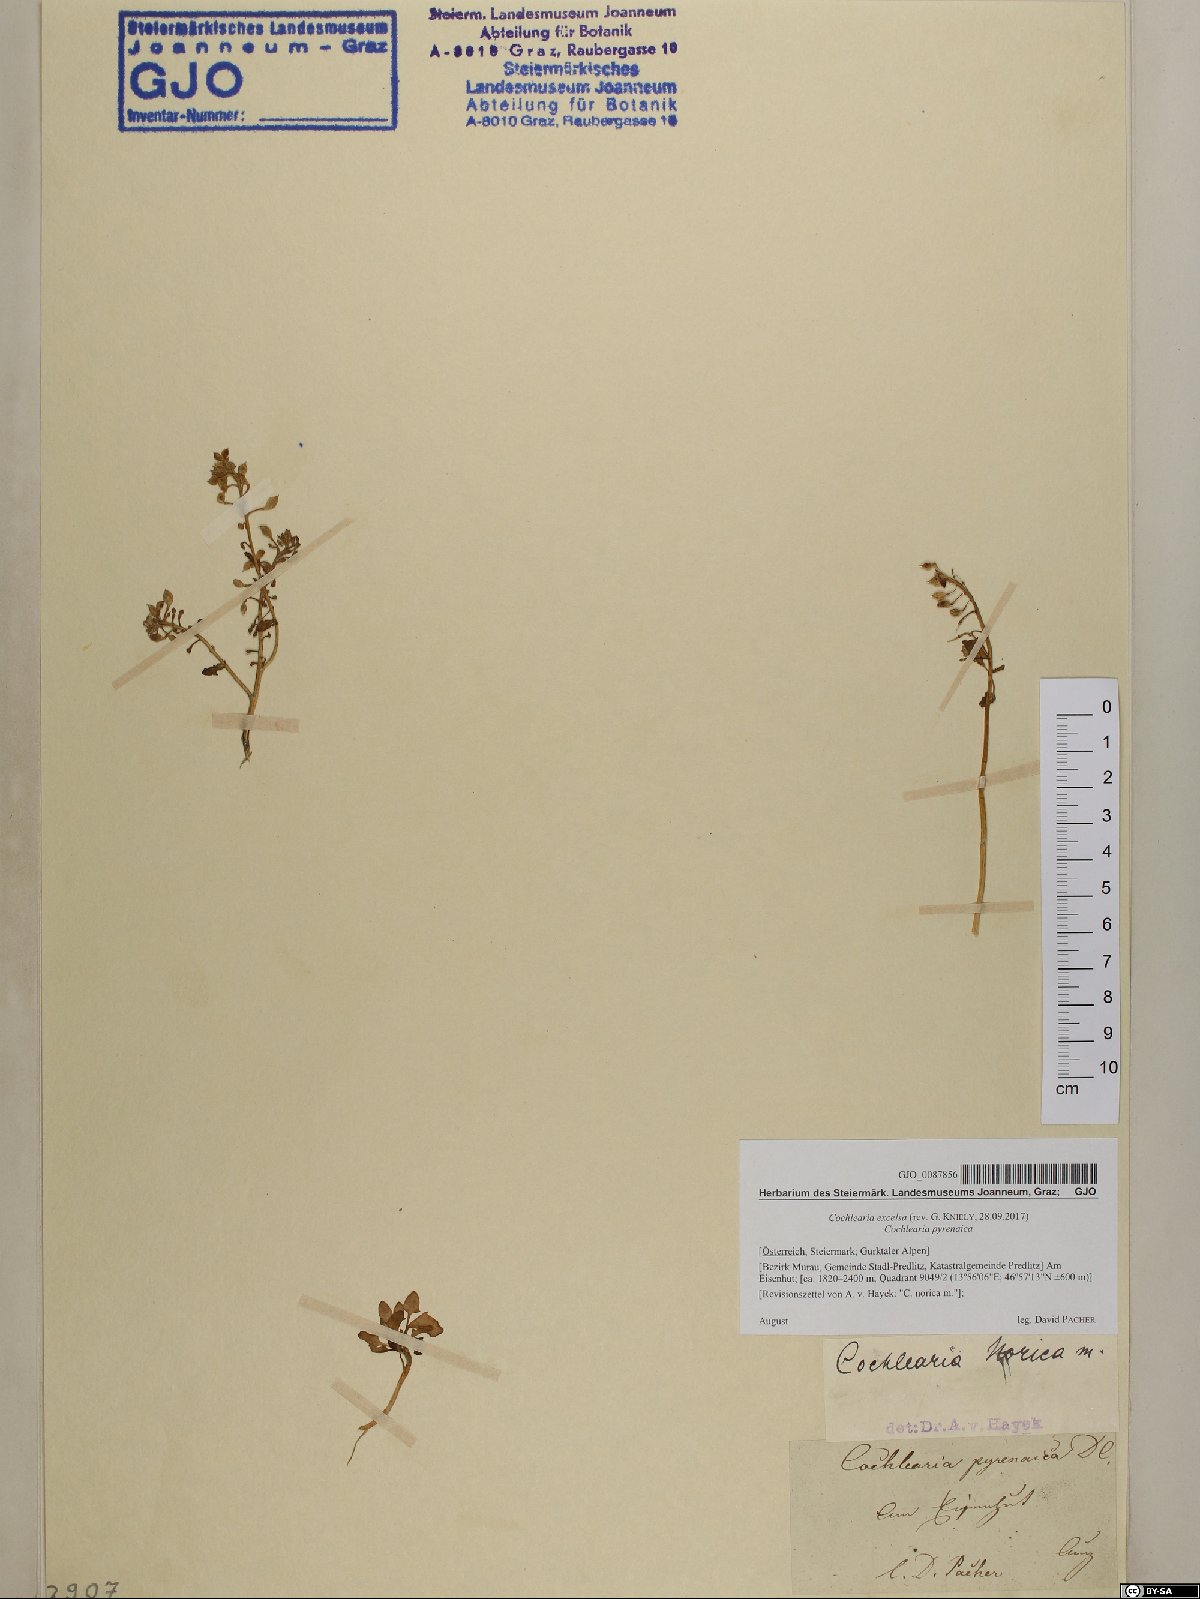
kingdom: Plantae
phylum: Tracheophyta
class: Magnoliopsida
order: Brassicales
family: Brassicaceae
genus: Cochlearia
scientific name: Cochlearia pyrenaica
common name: Upland scurvy-grass
